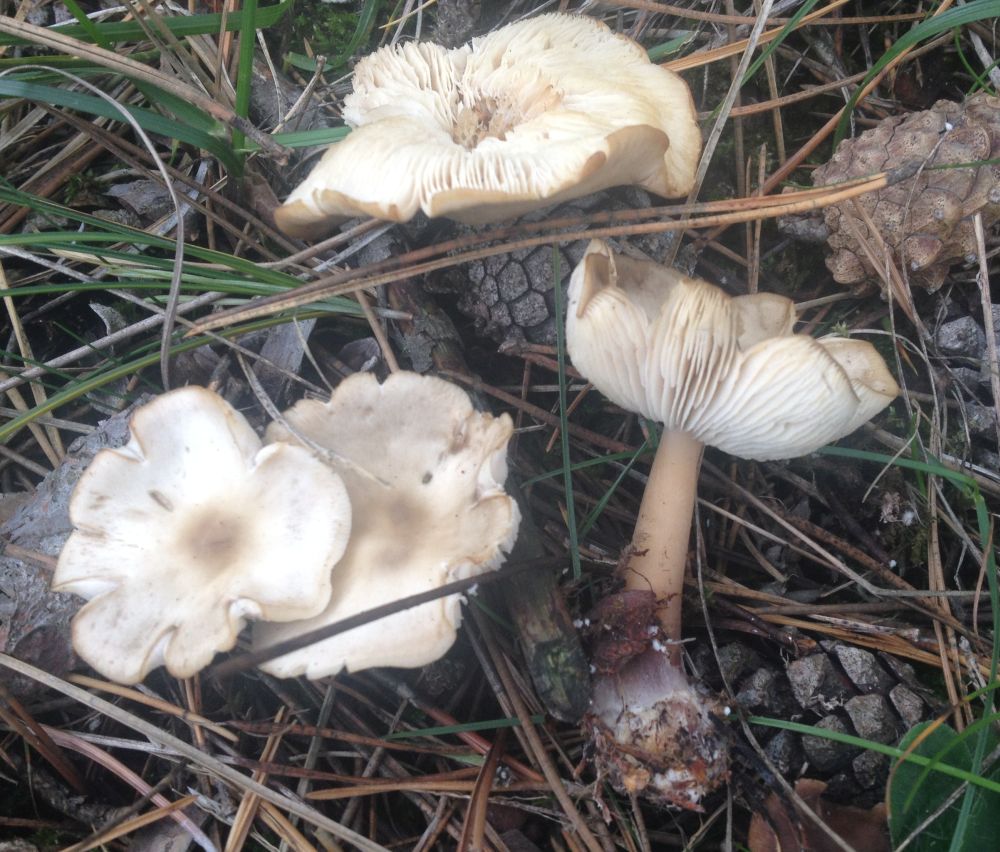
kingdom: Fungi
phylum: Basidiomycota
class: Agaricomycetes
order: Agaricales
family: Omphalotaceae
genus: Rhodocollybia
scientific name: Rhodocollybia asema
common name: horngrå fladhat
